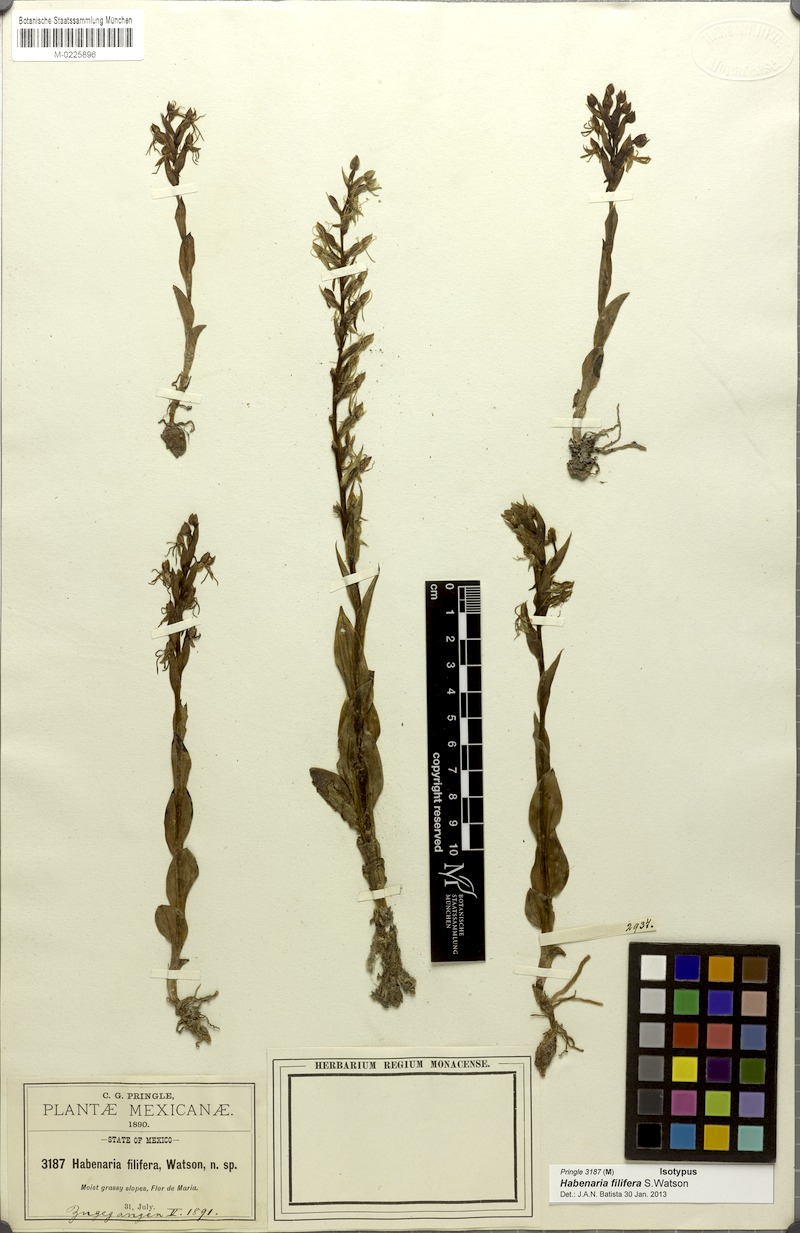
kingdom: Plantae
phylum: Tracheophyta
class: Liliopsida
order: Asparagales
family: Orchidaceae
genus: Habenaria
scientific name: Habenaria filifera
